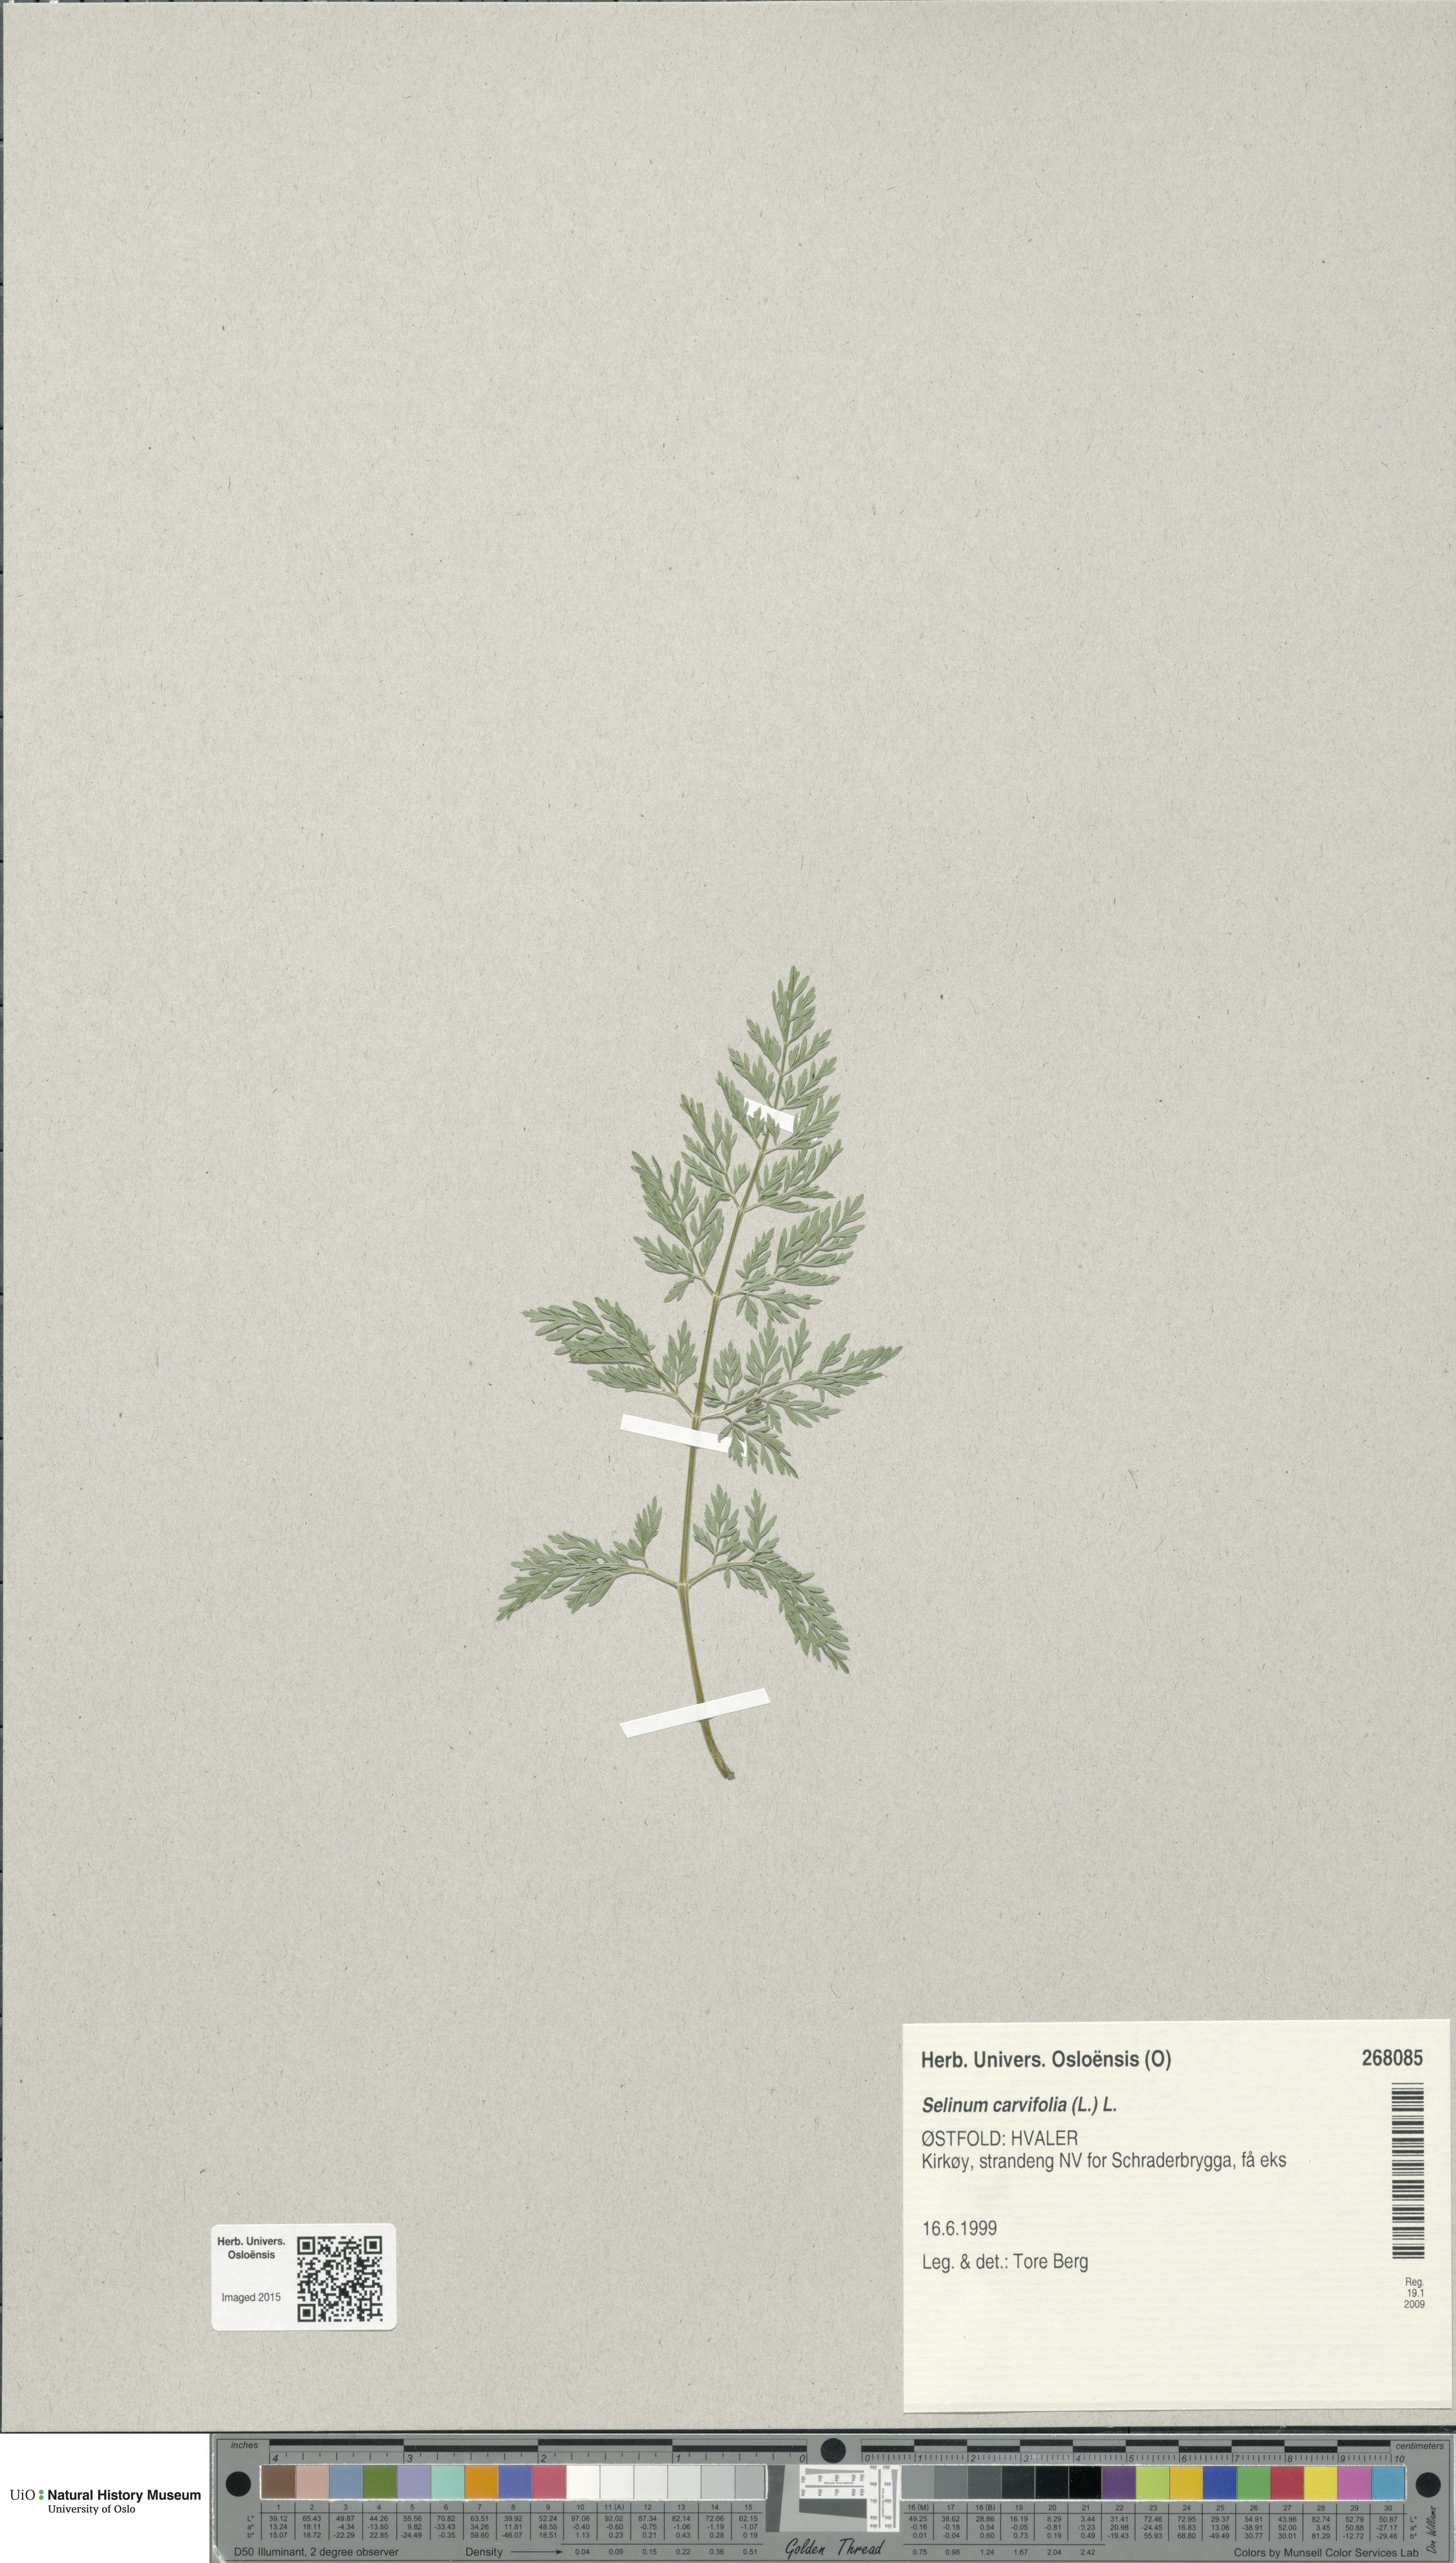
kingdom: Plantae
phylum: Tracheophyta
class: Magnoliopsida
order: Apiales
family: Apiaceae
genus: Selinum
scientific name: Selinum carvifolia
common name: Cambridge milk-parsley
